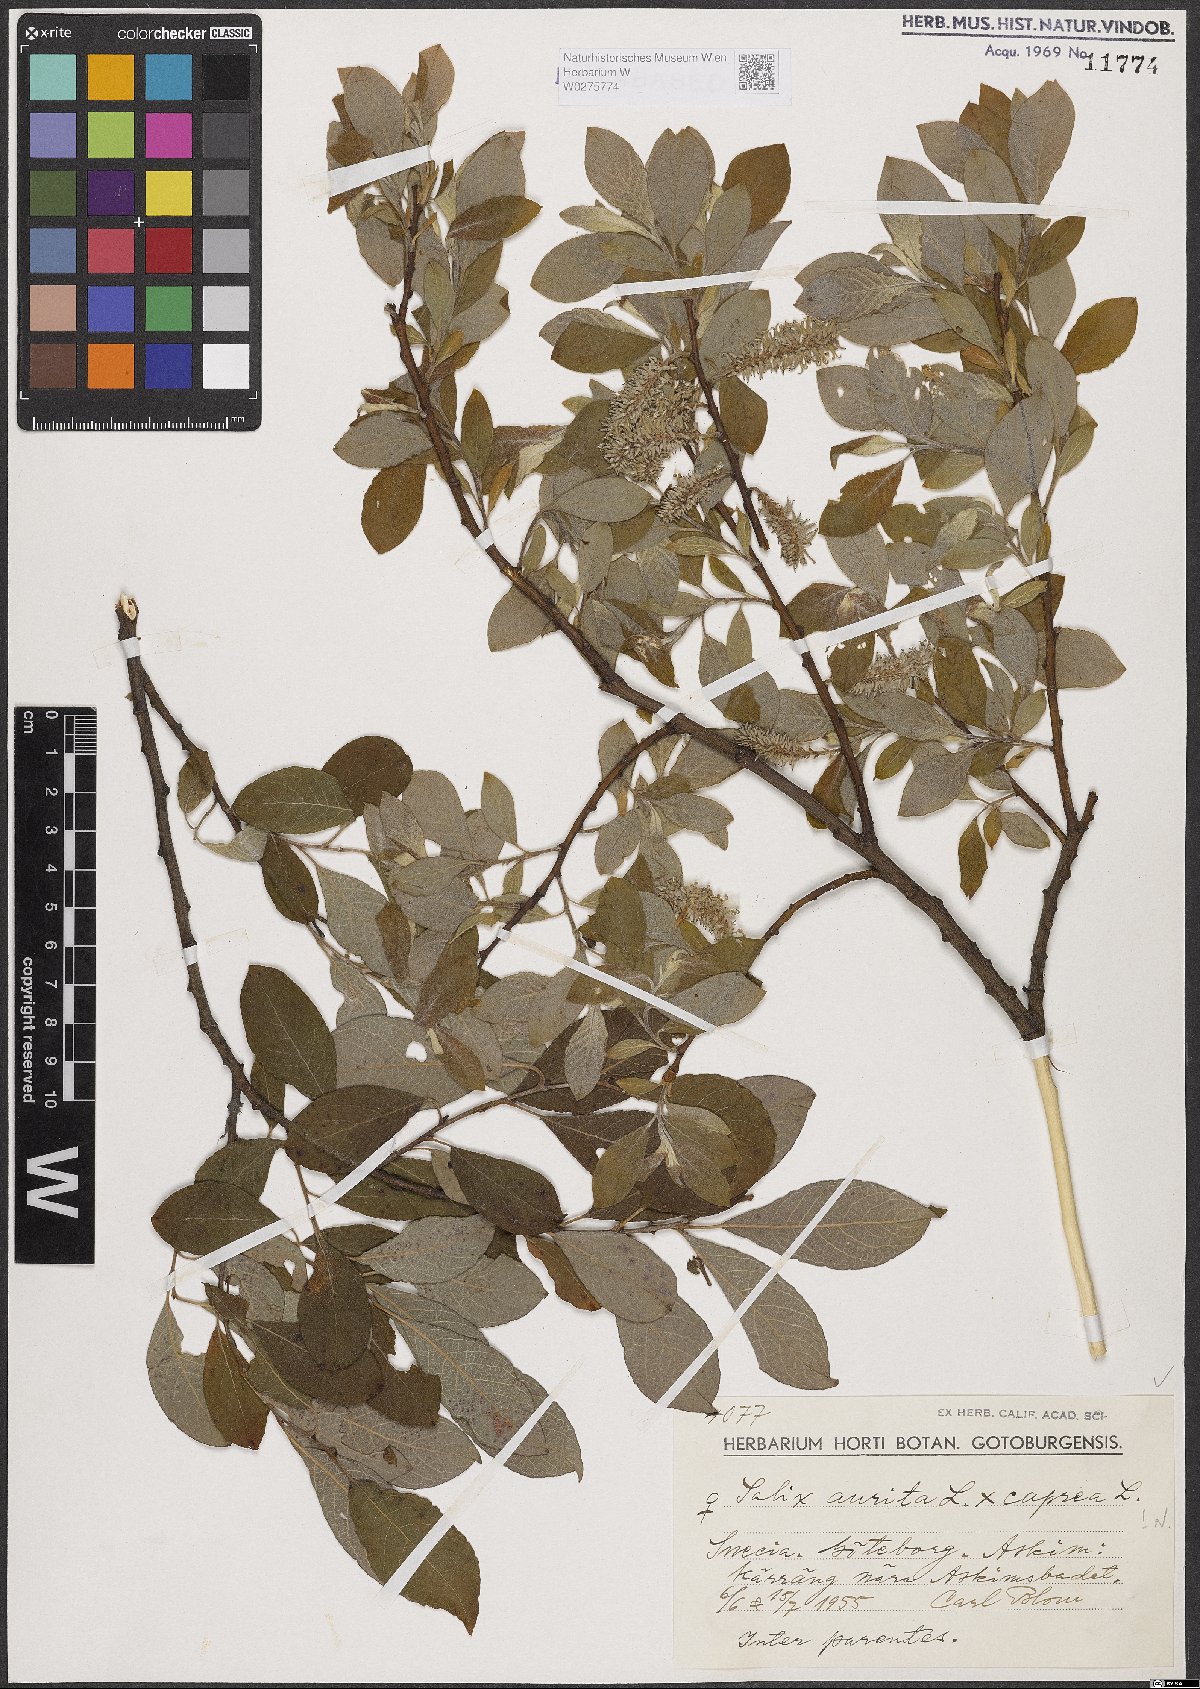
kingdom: Plantae
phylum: Tracheophyta
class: Magnoliopsida
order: Malpighiales
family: Salicaceae
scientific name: Salicaceae
